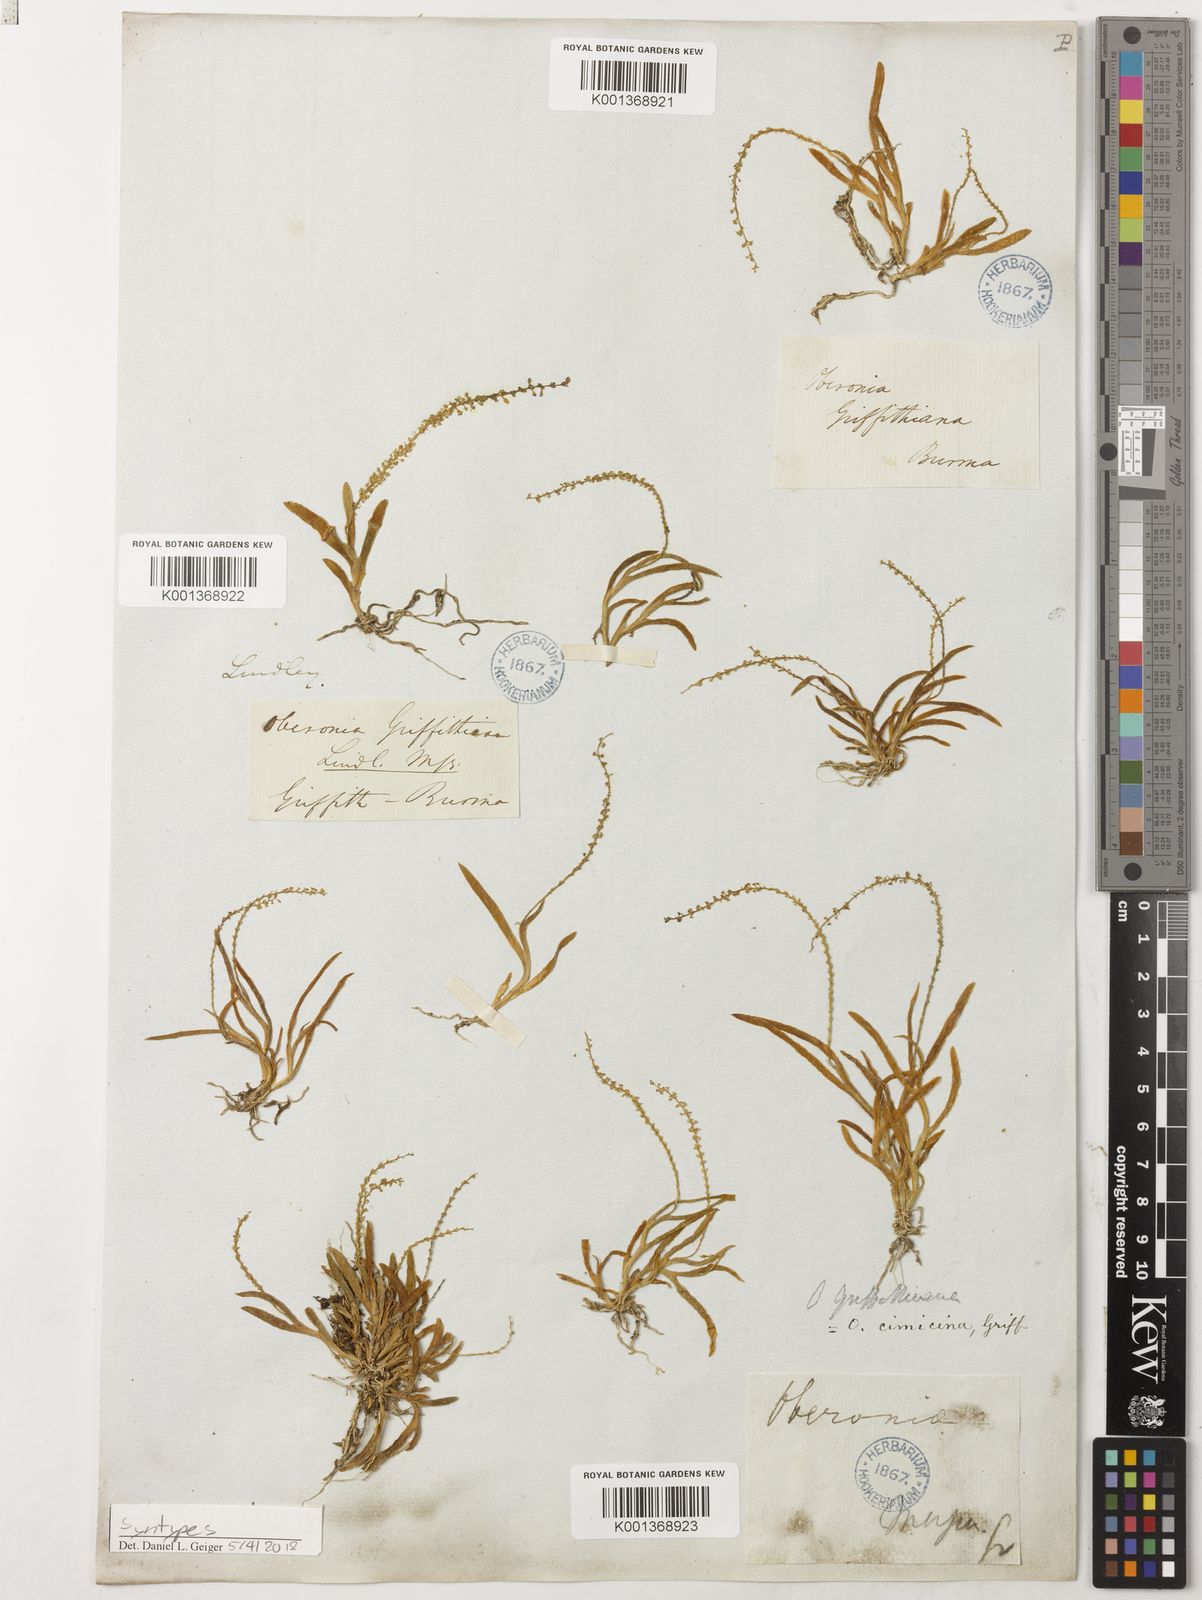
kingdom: Plantae
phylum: Tracheophyta
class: Liliopsida
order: Asparagales
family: Orchidaceae
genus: Oberonia
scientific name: Oberonia griffithiana
